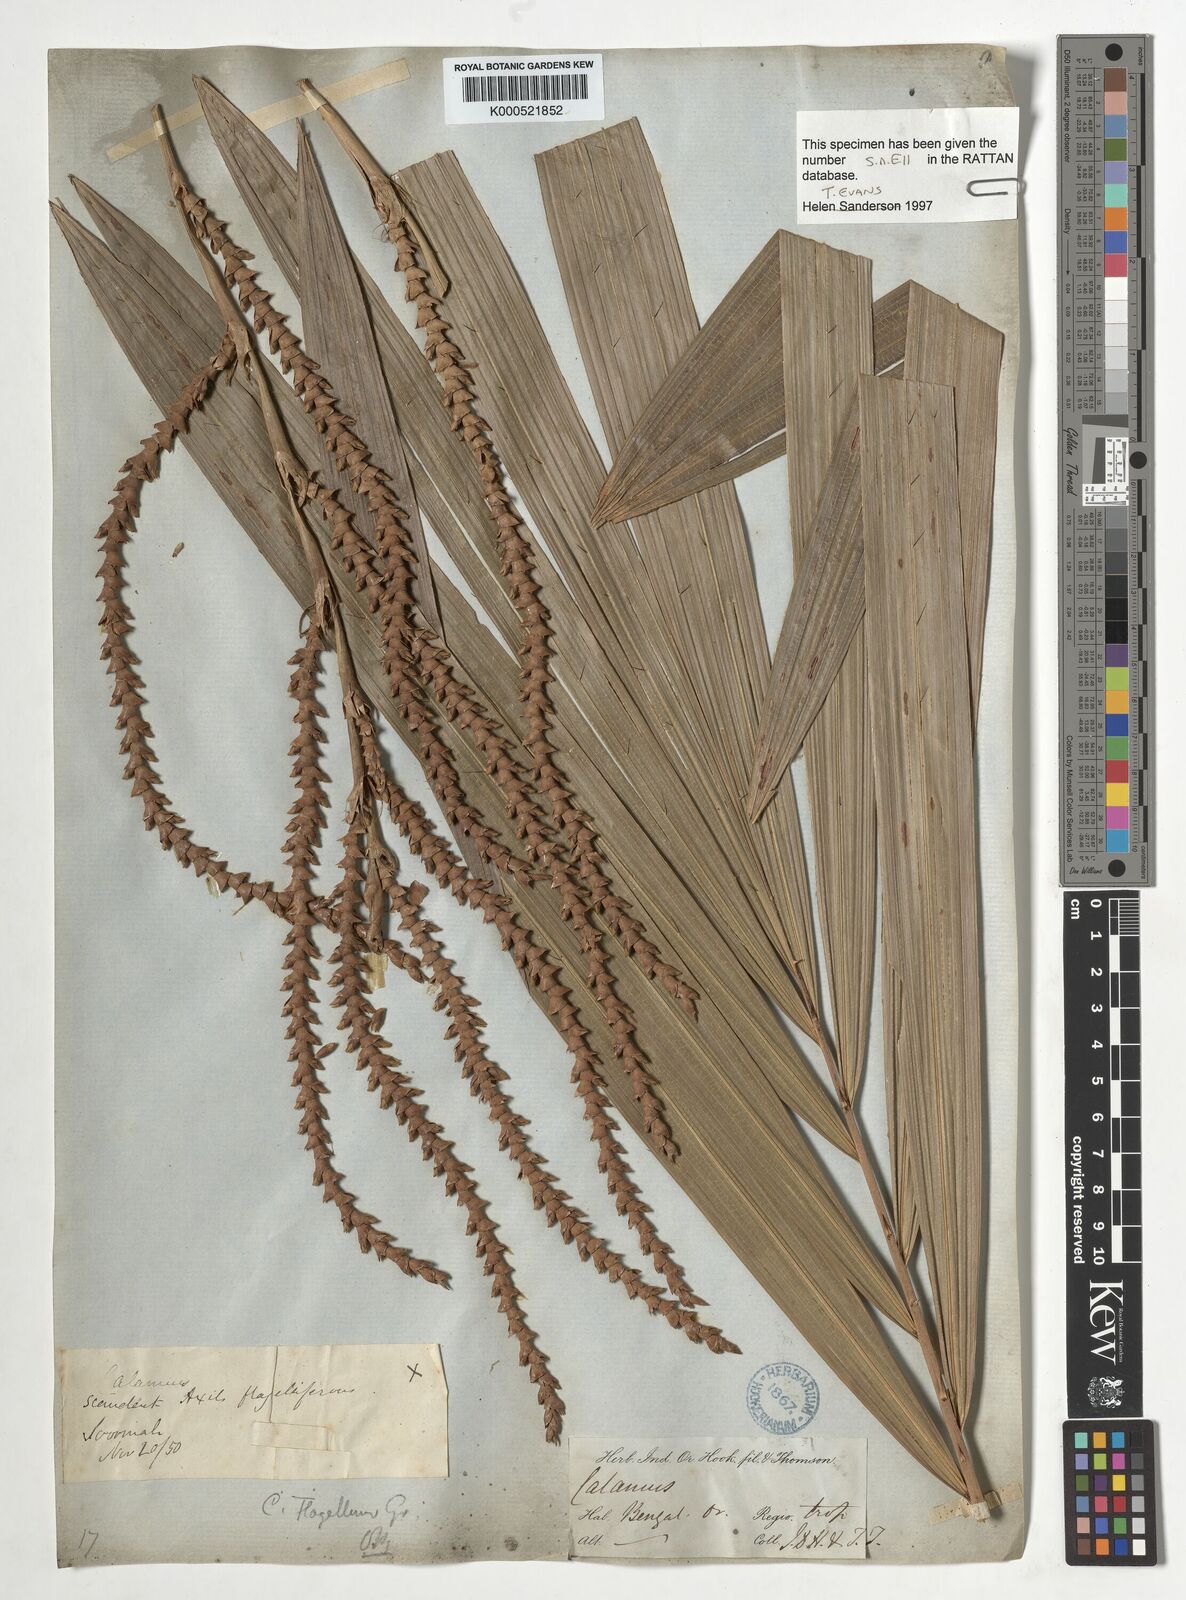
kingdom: Plantae
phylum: Tracheophyta
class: Liliopsida
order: Arecales
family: Arecaceae
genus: Calamus
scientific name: Calamus
